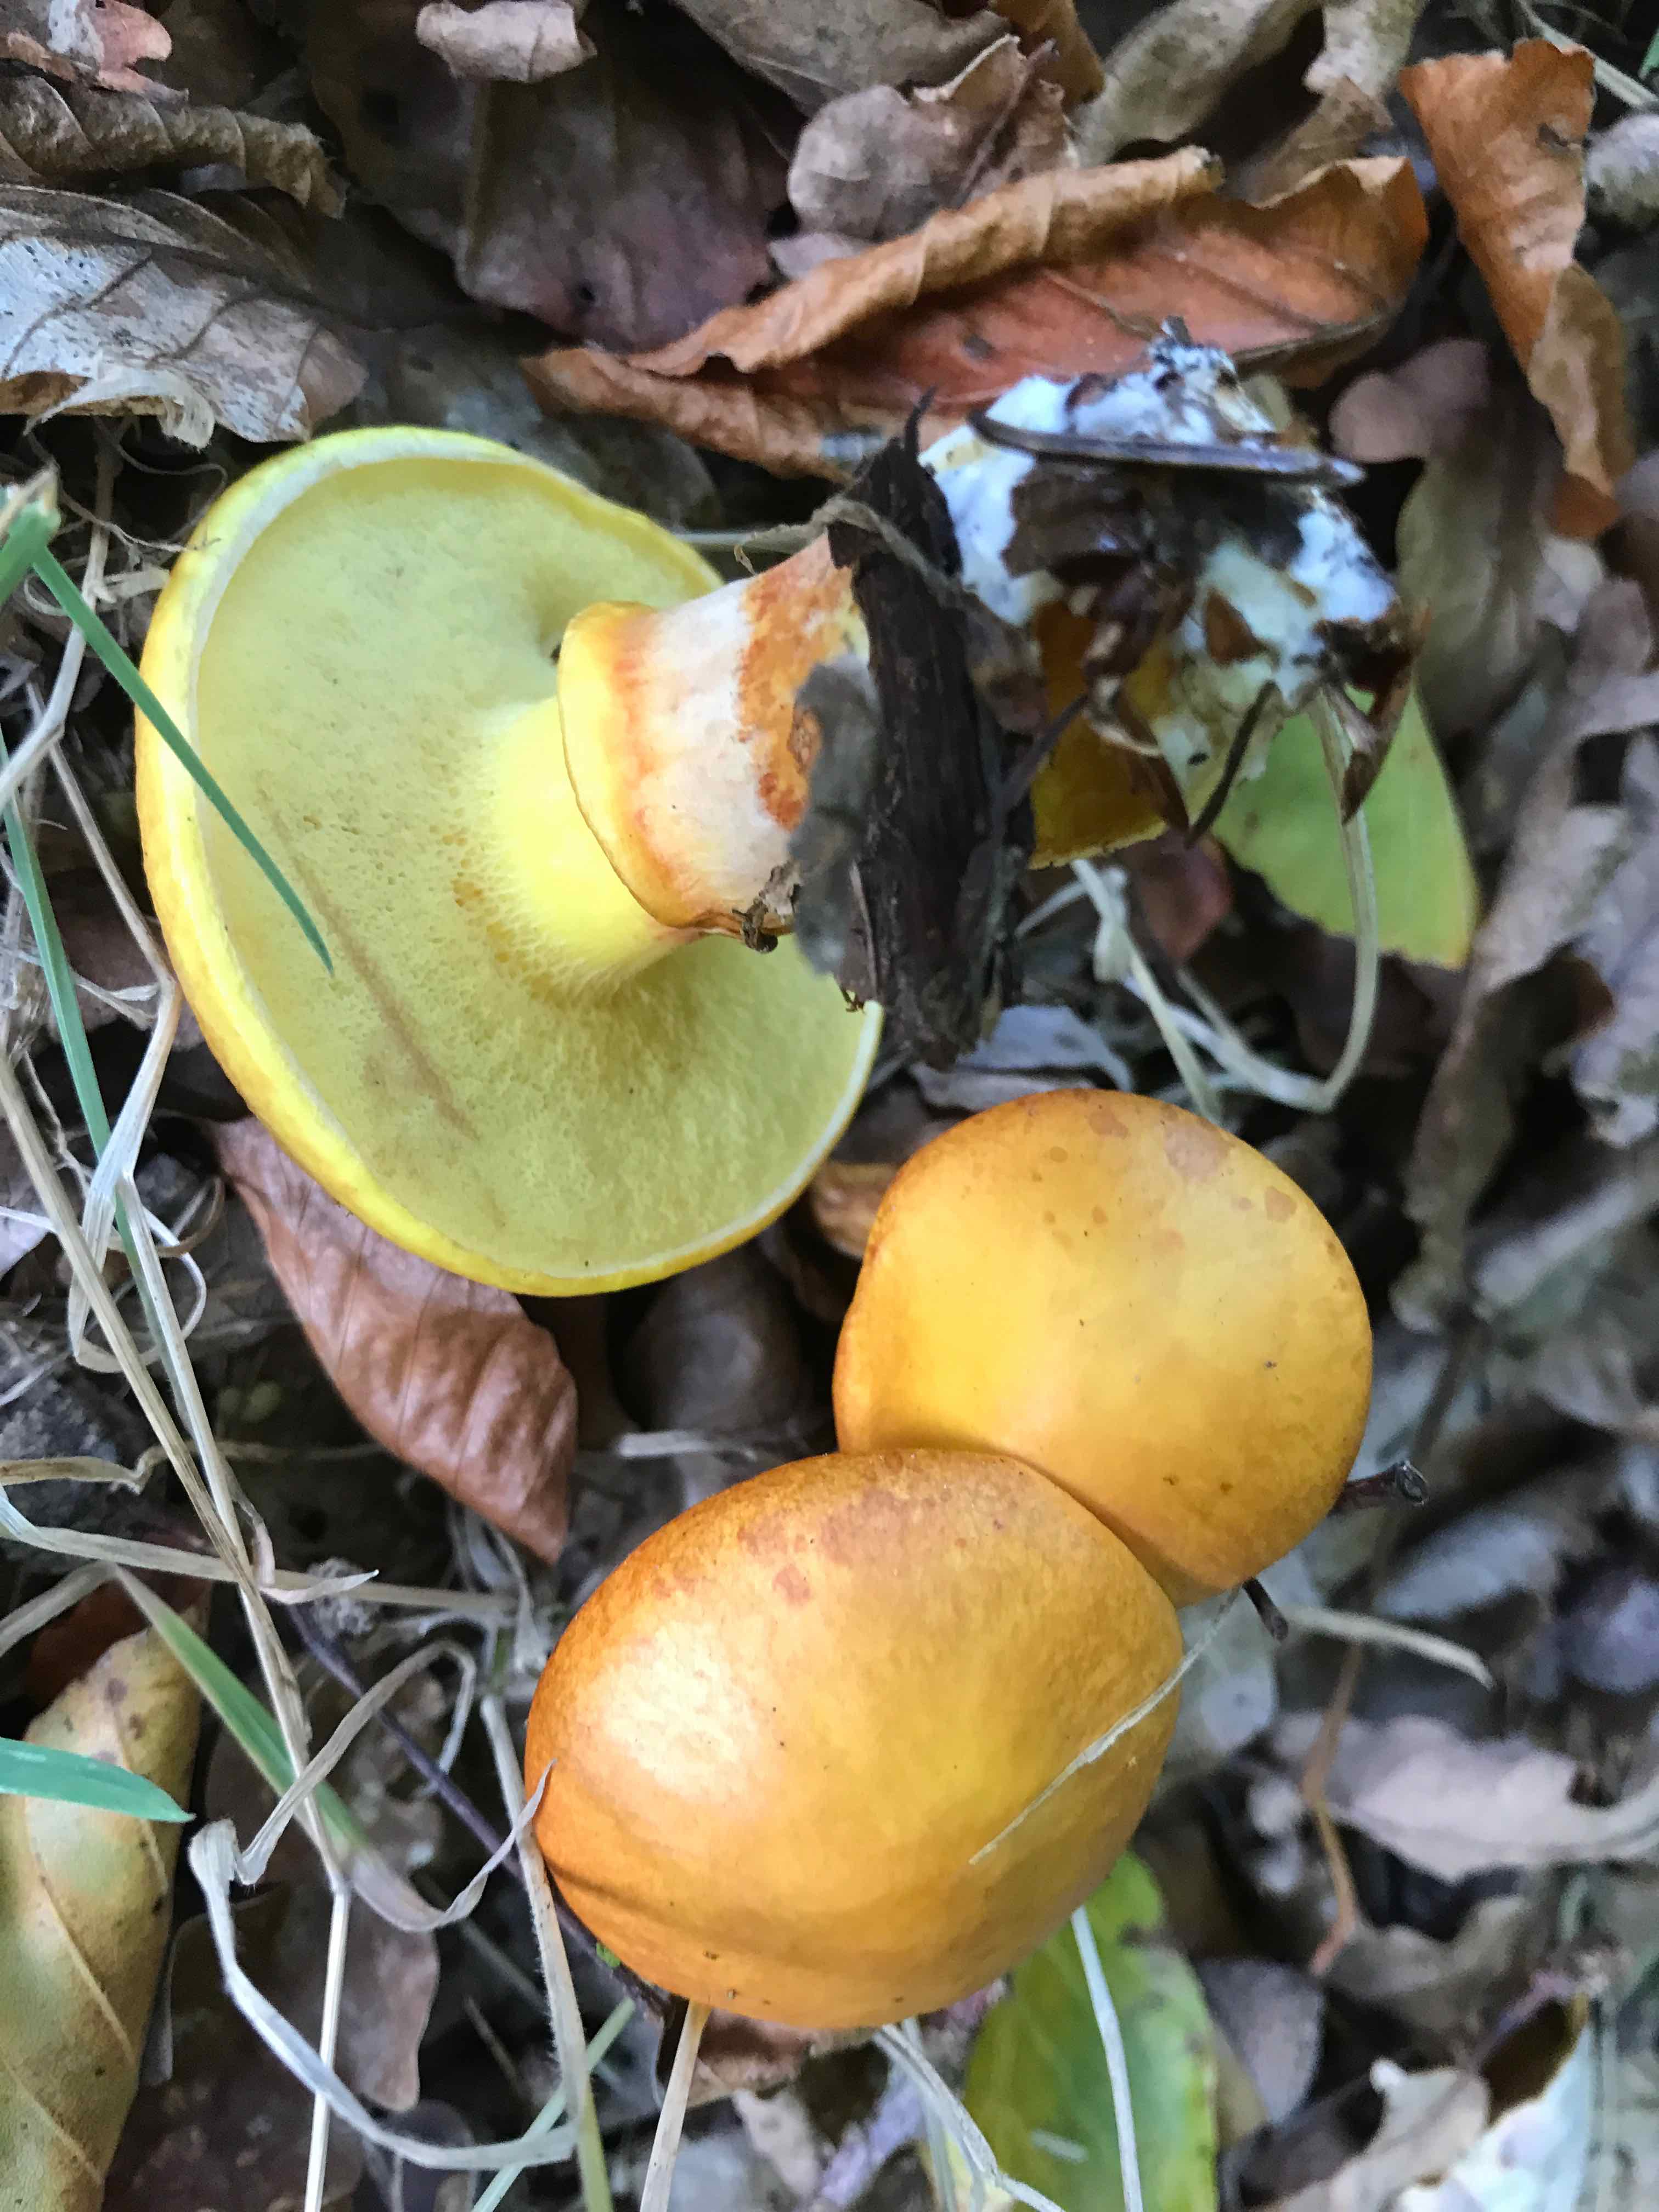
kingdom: Fungi
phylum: Basidiomycota
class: Agaricomycetes
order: Boletales
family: Suillaceae
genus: Suillus
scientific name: Suillus grevillei
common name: lærke-slimrørhat
